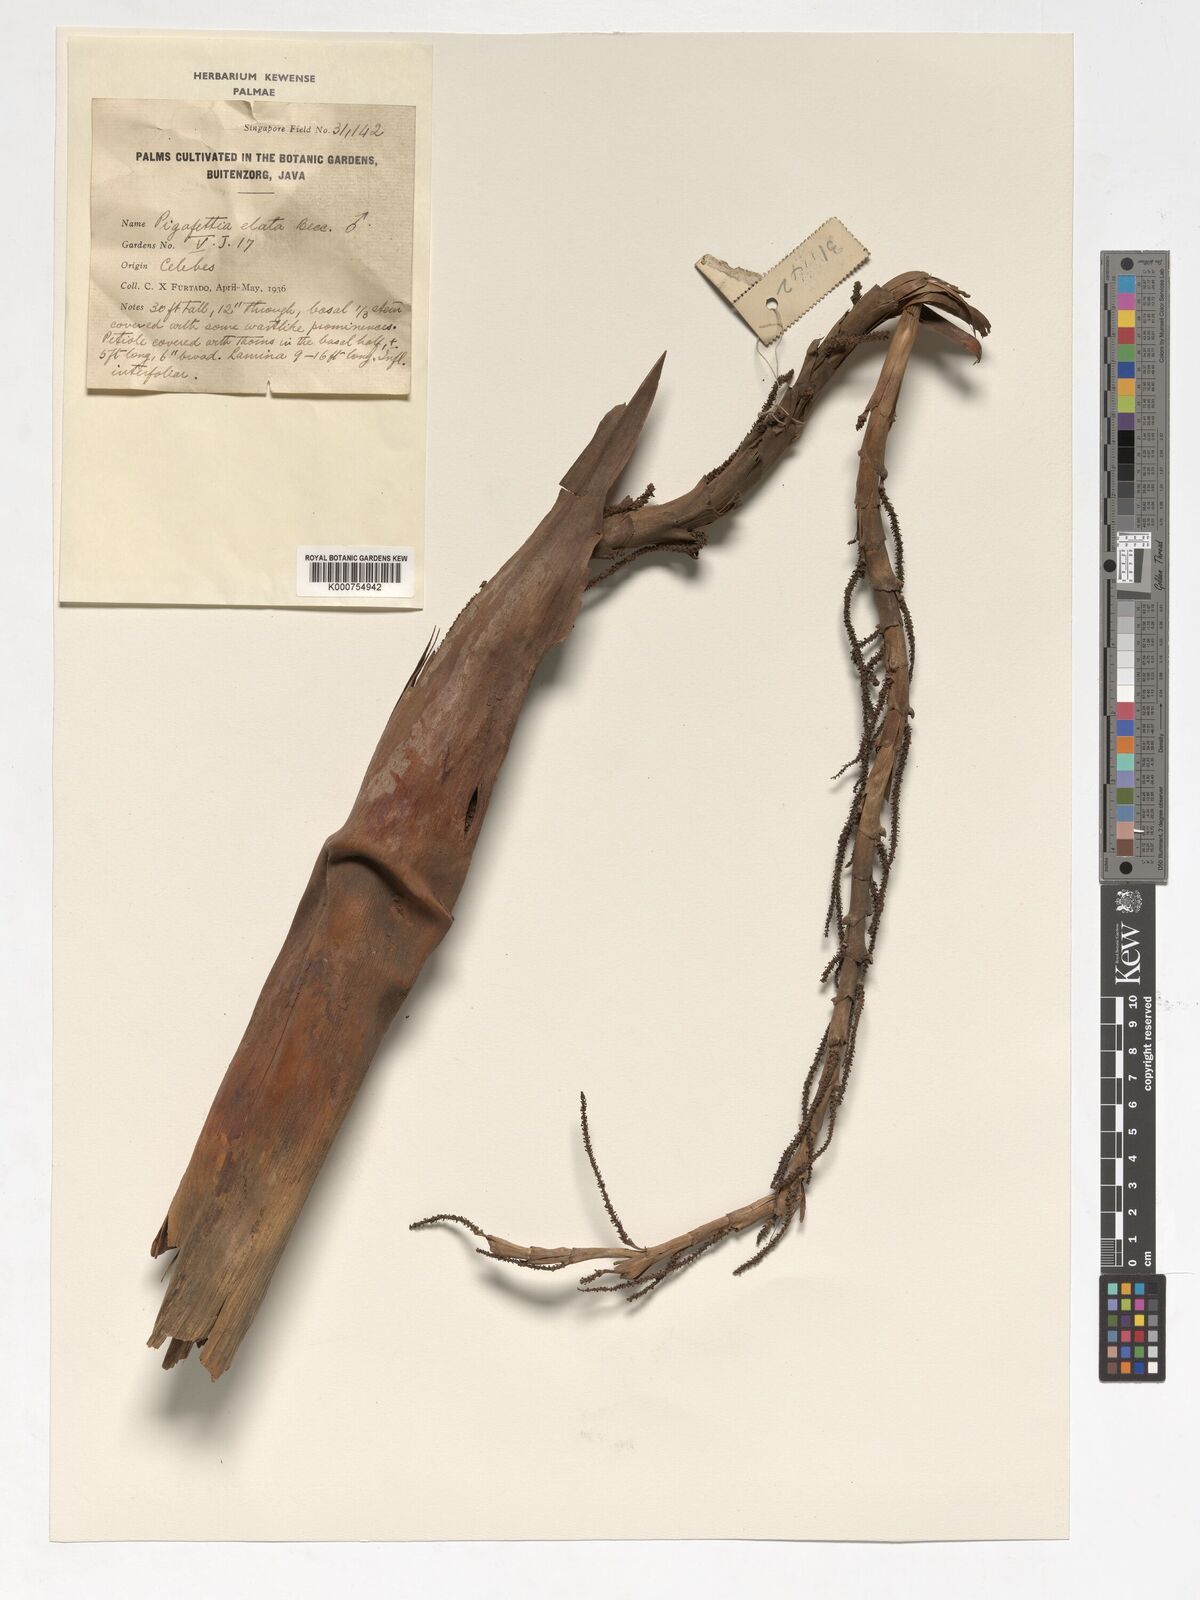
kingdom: Plantae
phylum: Tracheophyta
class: Liliopsida
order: Arecales
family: Arecaceae
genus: Pigafetta
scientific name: Pigafetta elata
